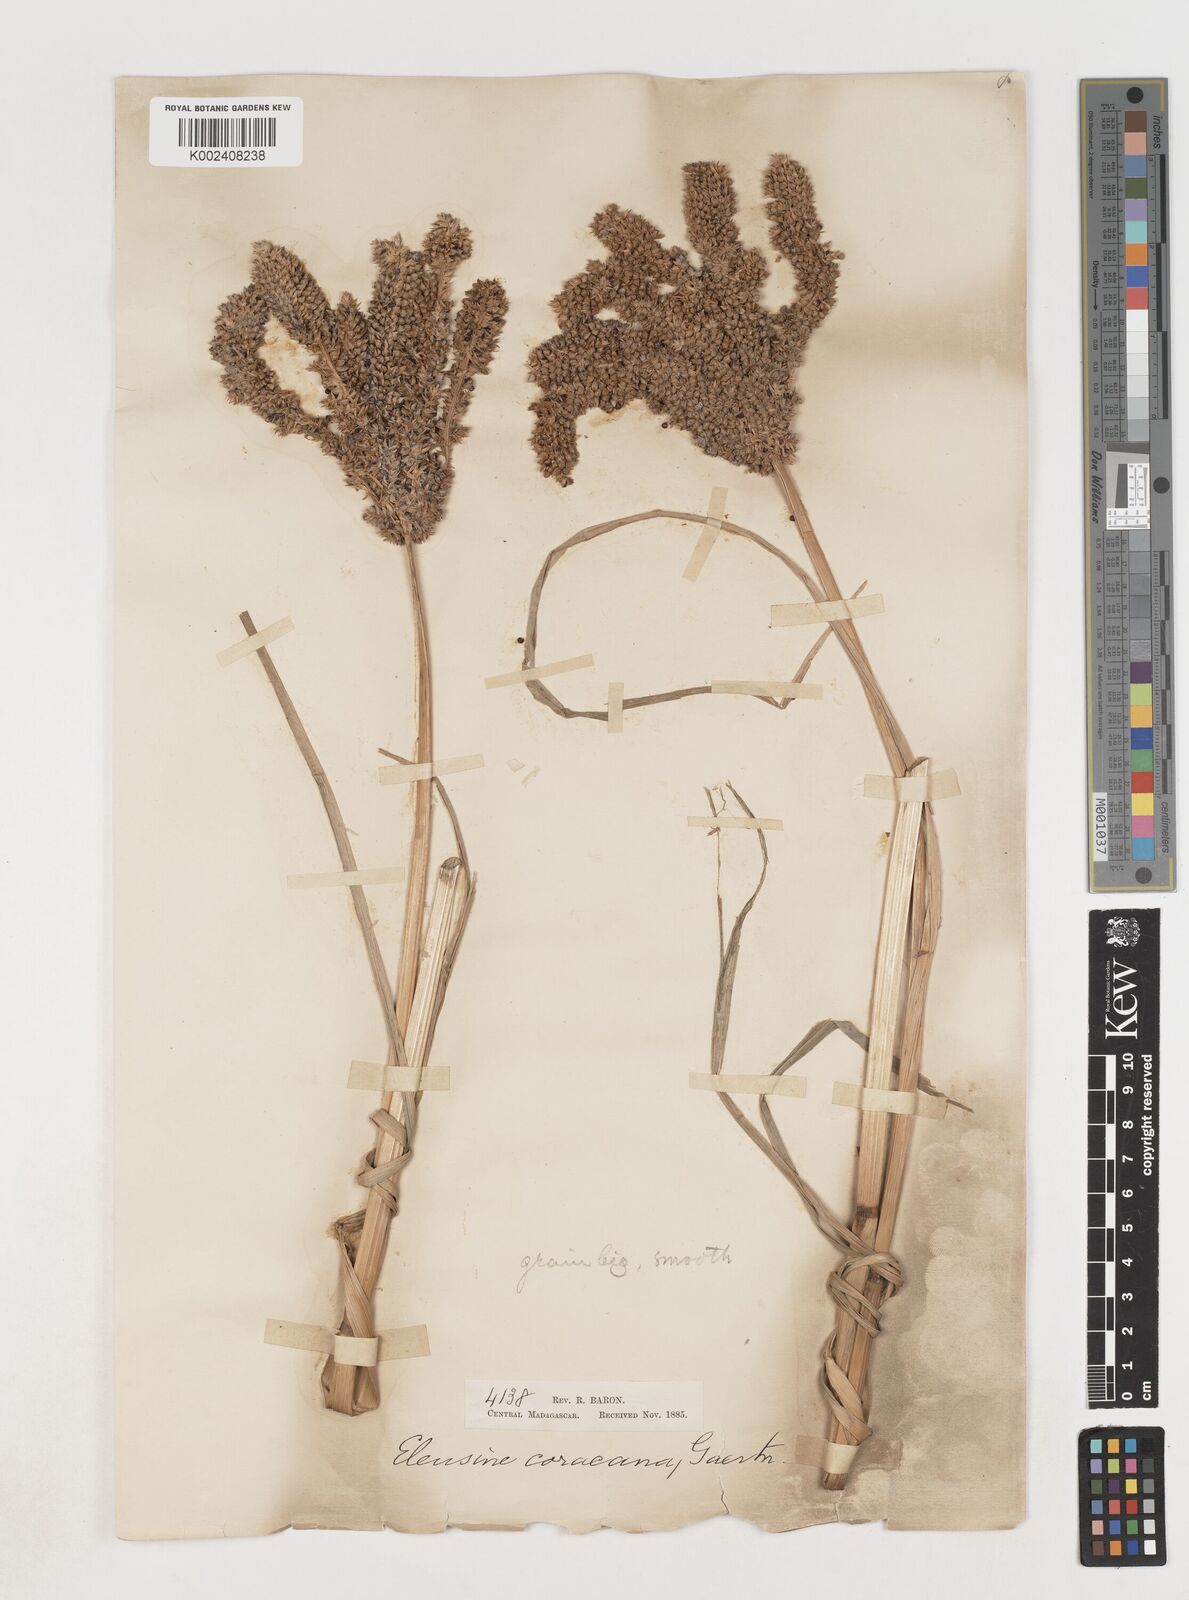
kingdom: Plantae
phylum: Tracheophyta
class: Liliopsida
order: Poales
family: Poaceae
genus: Eleusine
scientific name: Eleusine coracana
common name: Finger millet
